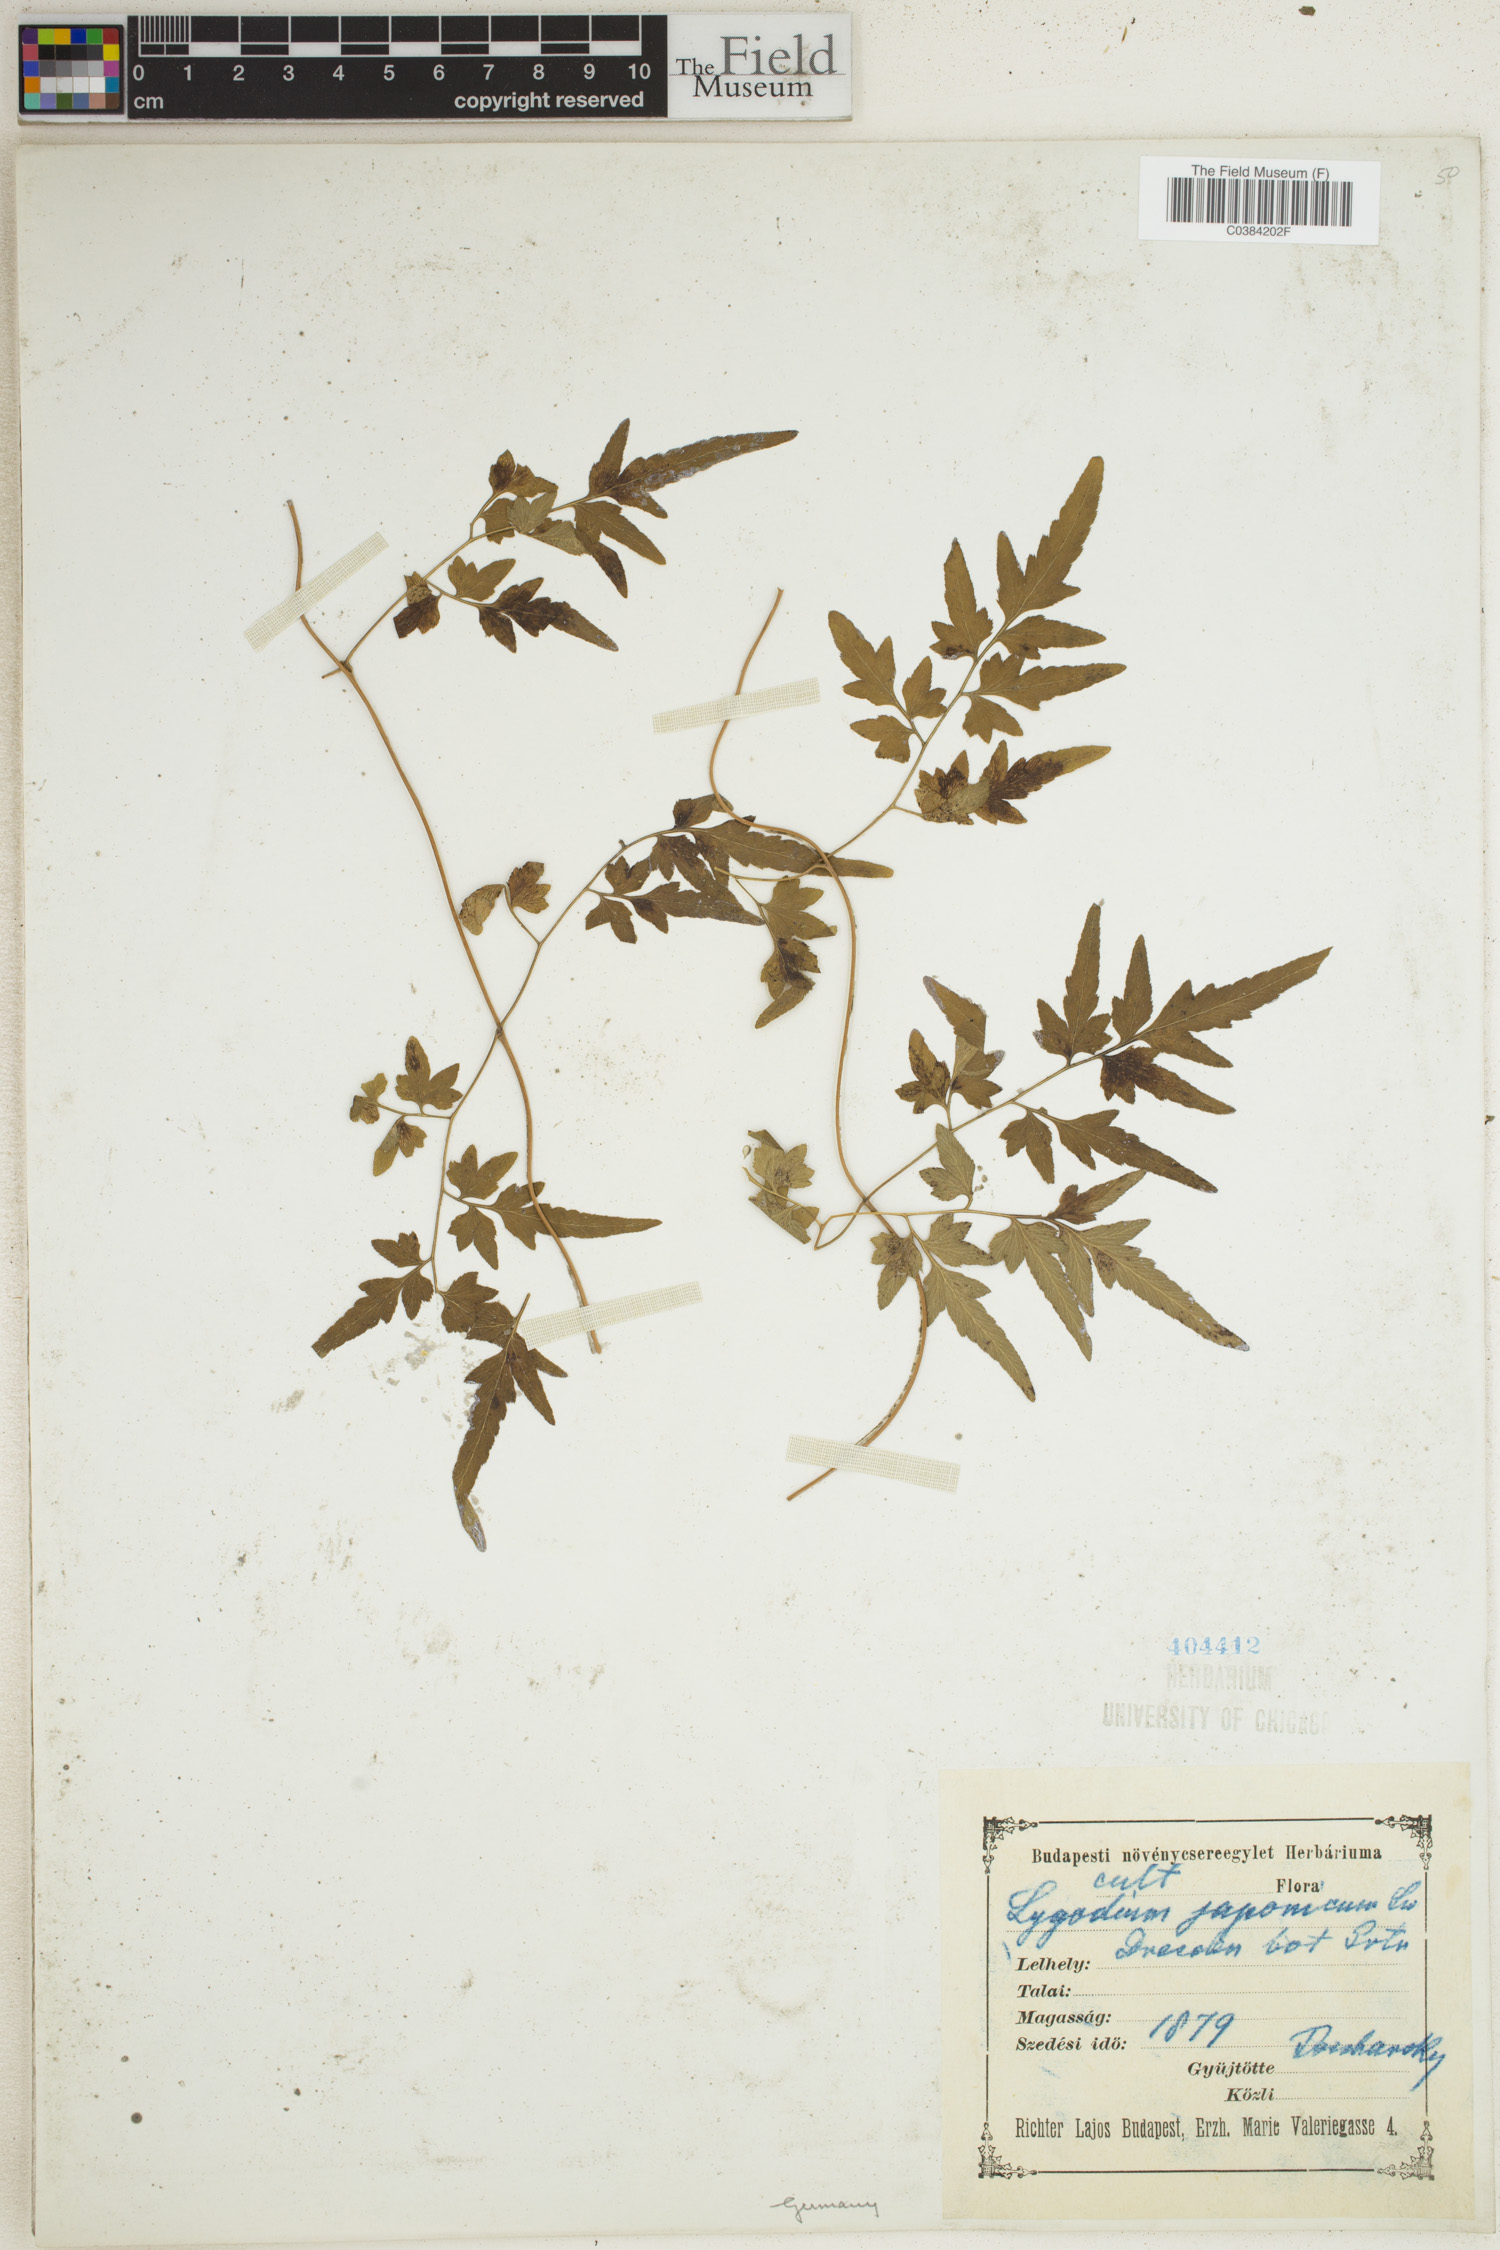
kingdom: Plantae
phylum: Tracheophyta
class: Lycopodiopsida
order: Lycopodiales
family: Lycopodiaceae
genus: Lycopodium
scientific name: Lycopodium japonicum
